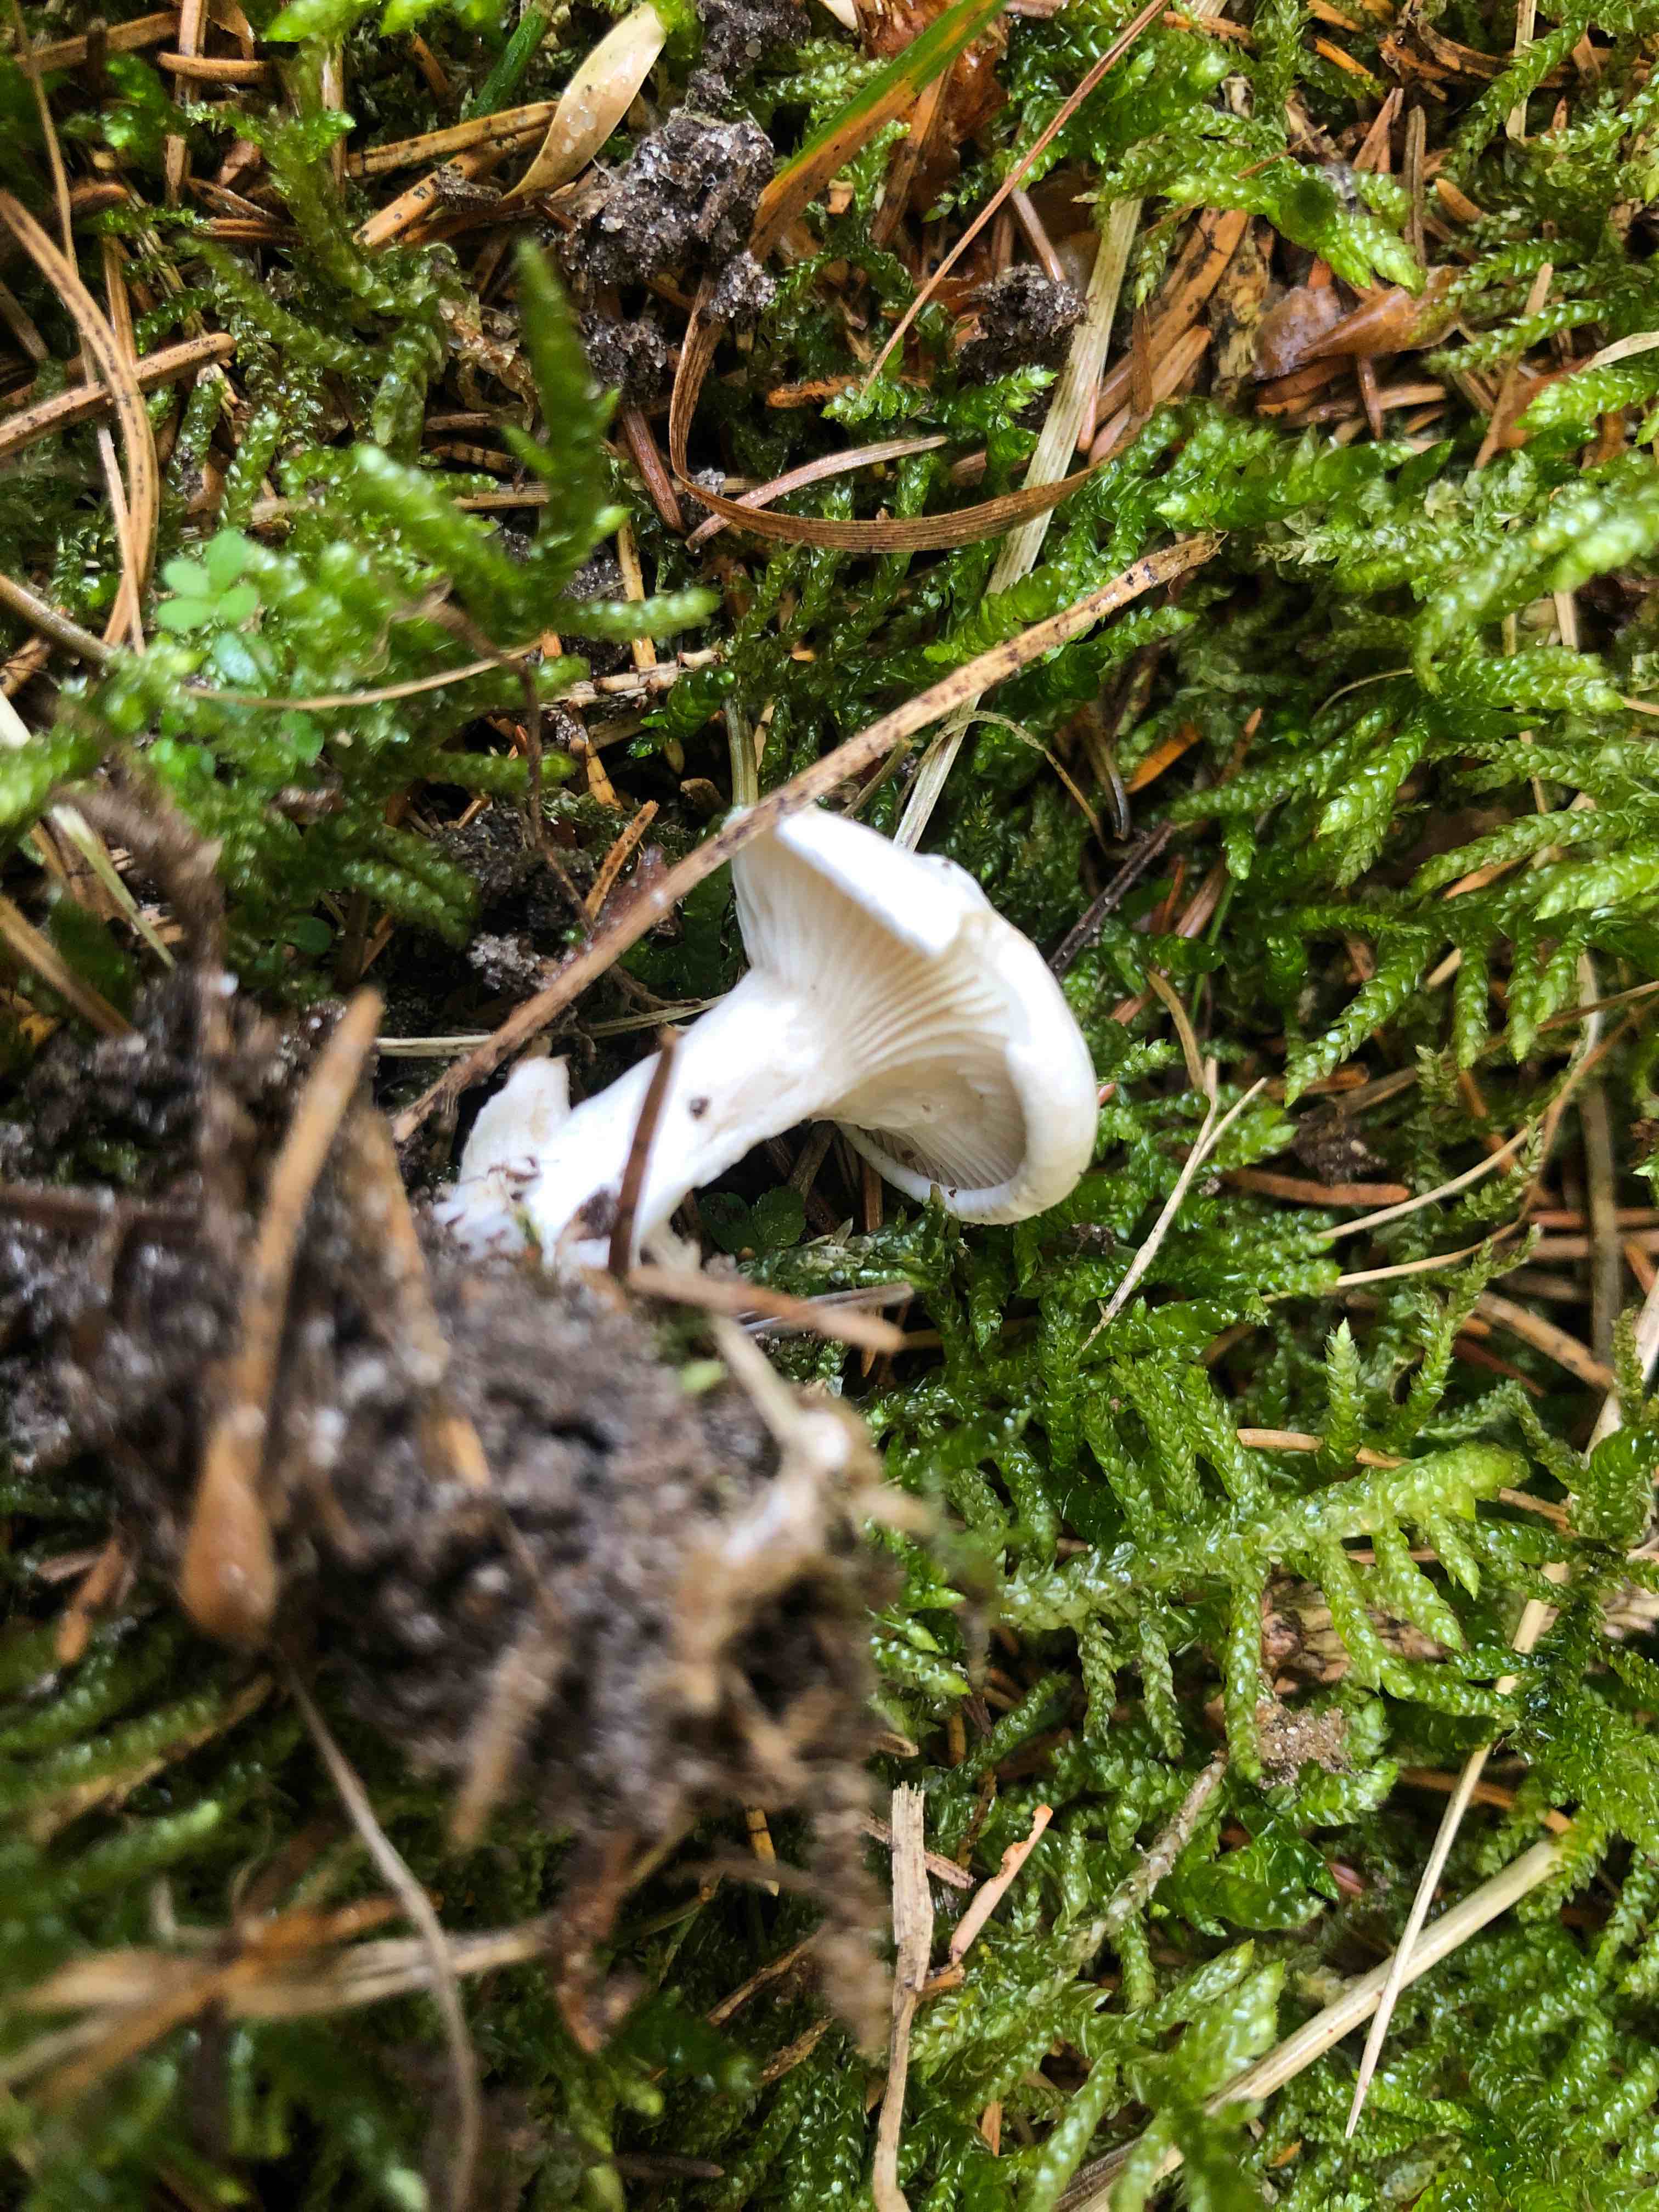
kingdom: Fungi
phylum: Basidiomycota
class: Agaricomycetes
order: Agaricales
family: Entolomataceae
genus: Clitopilus
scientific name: Clitopilus prunulus
